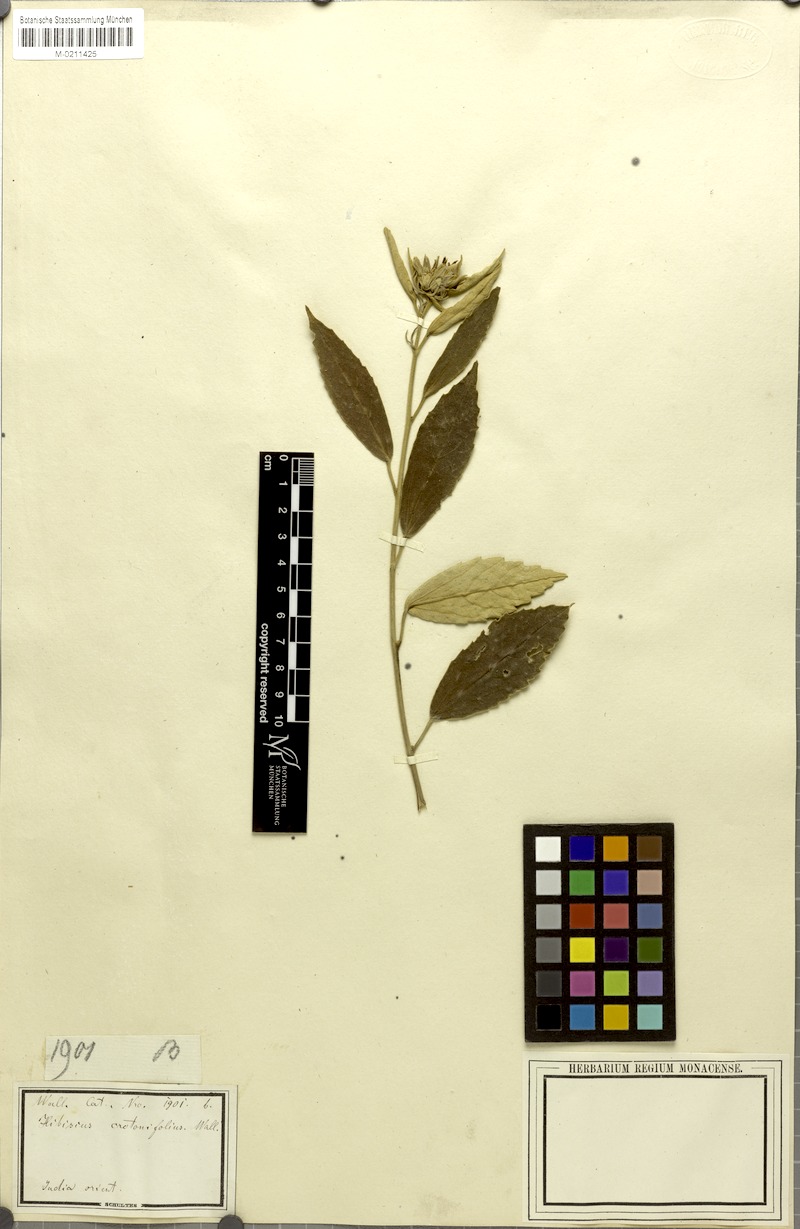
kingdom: Plantae
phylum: Tracheophyta
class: Magnoliopsida
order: Malvales
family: Malvaceae
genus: Decaschistia
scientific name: Decaschistia crotonifolia
